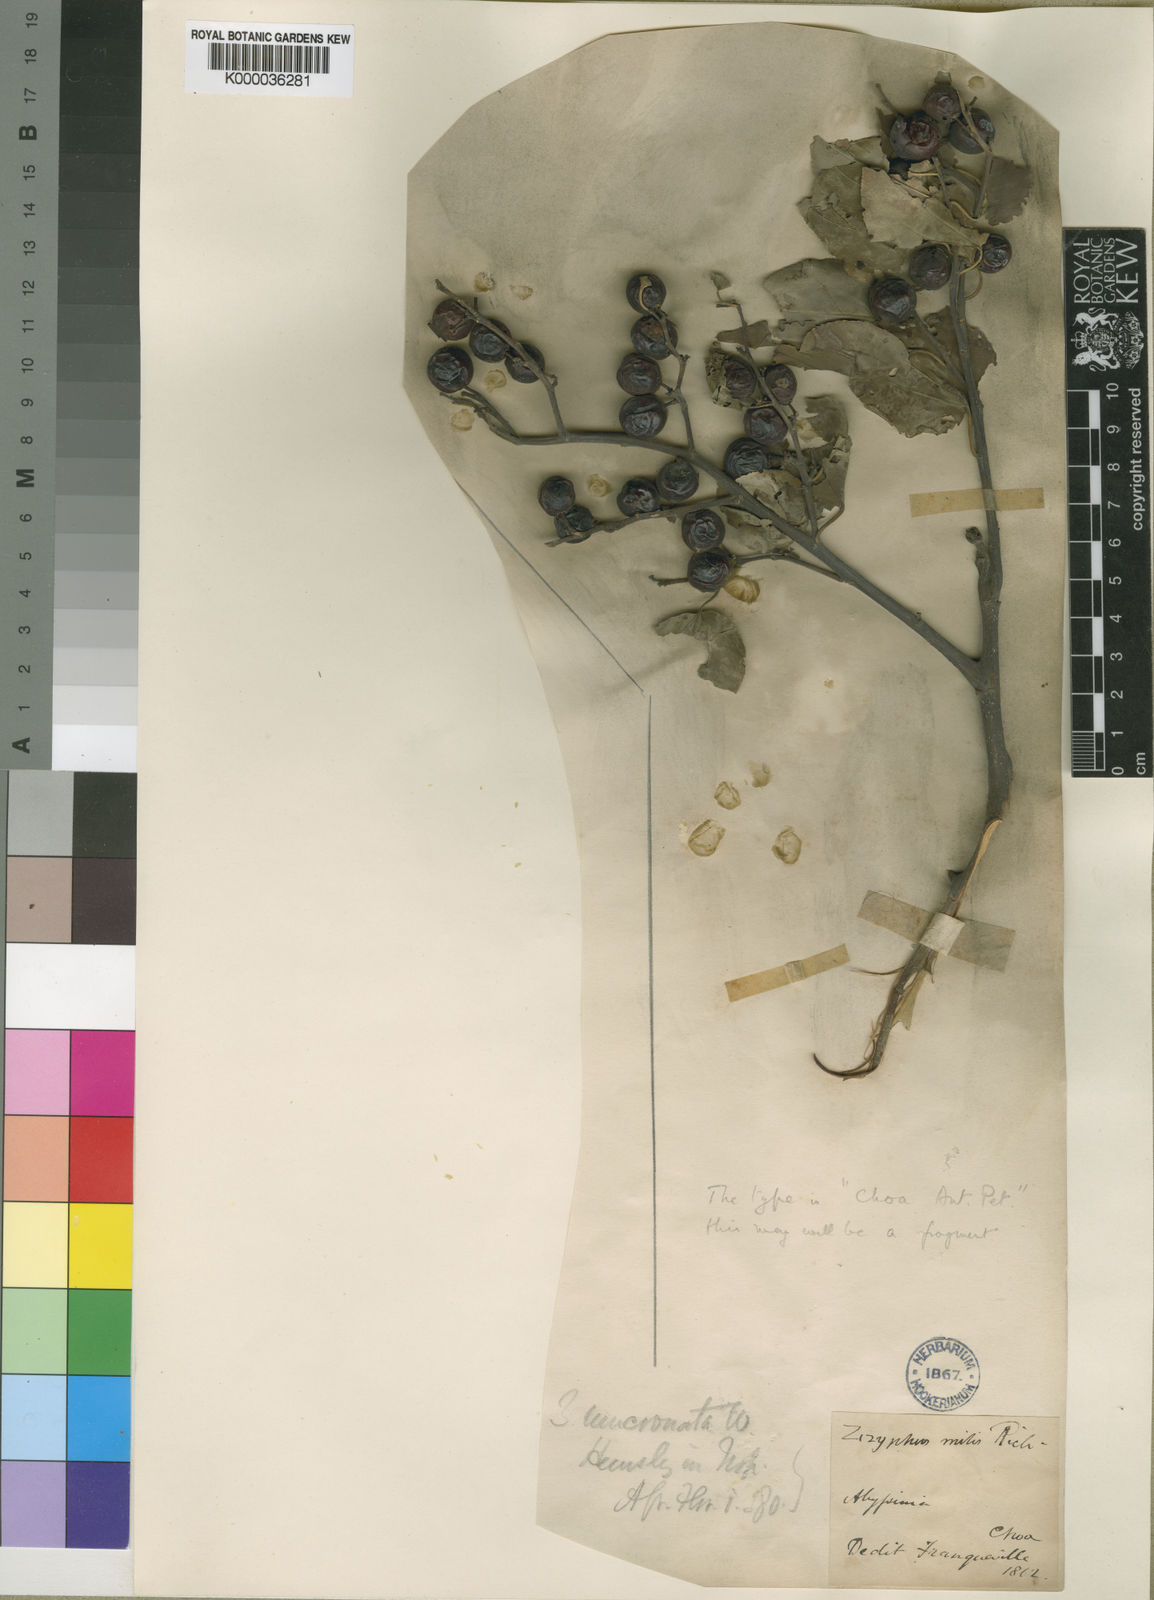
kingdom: Plantae
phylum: Tracheophyta
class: Magnoliopsida
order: Rosales
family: Rhamnaceae
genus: Ziziphus
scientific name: Ziziphus mucronata
